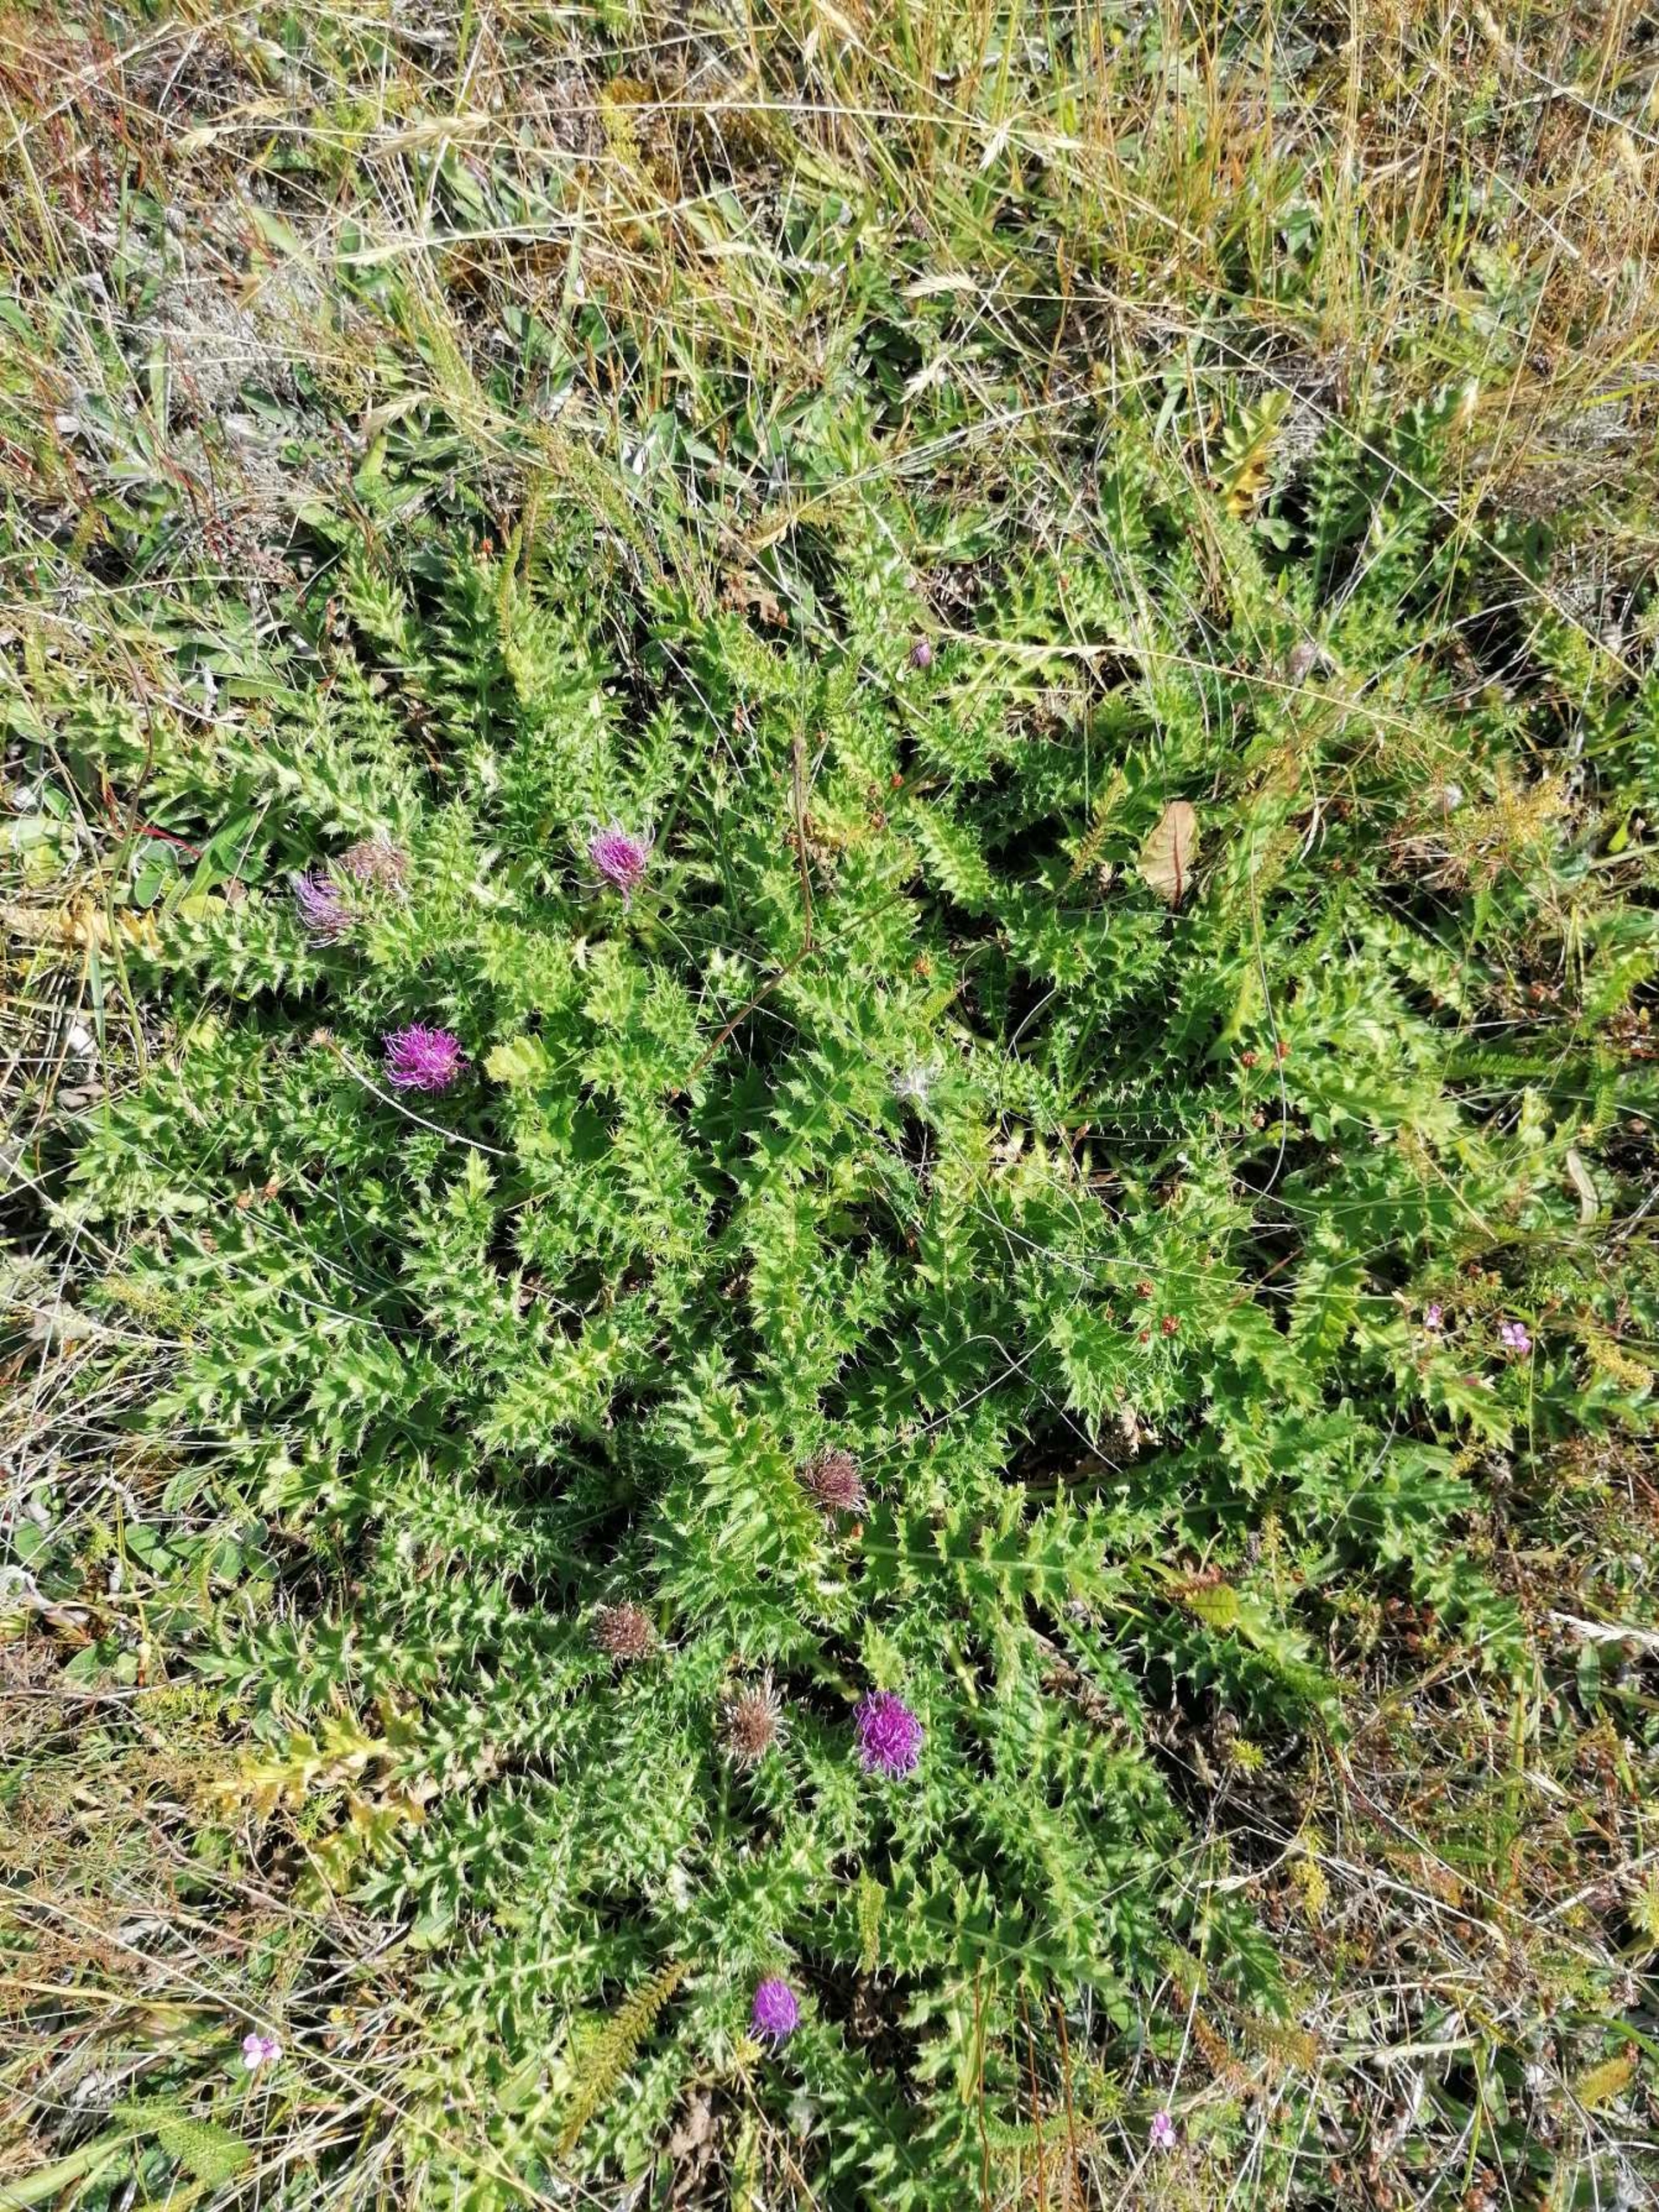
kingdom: Plantae
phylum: Tracheophyta
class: Magnoliopsida
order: Asterales
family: Asteraceae
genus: Cirsium
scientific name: Cirsium acaule
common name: Lav tidsel
